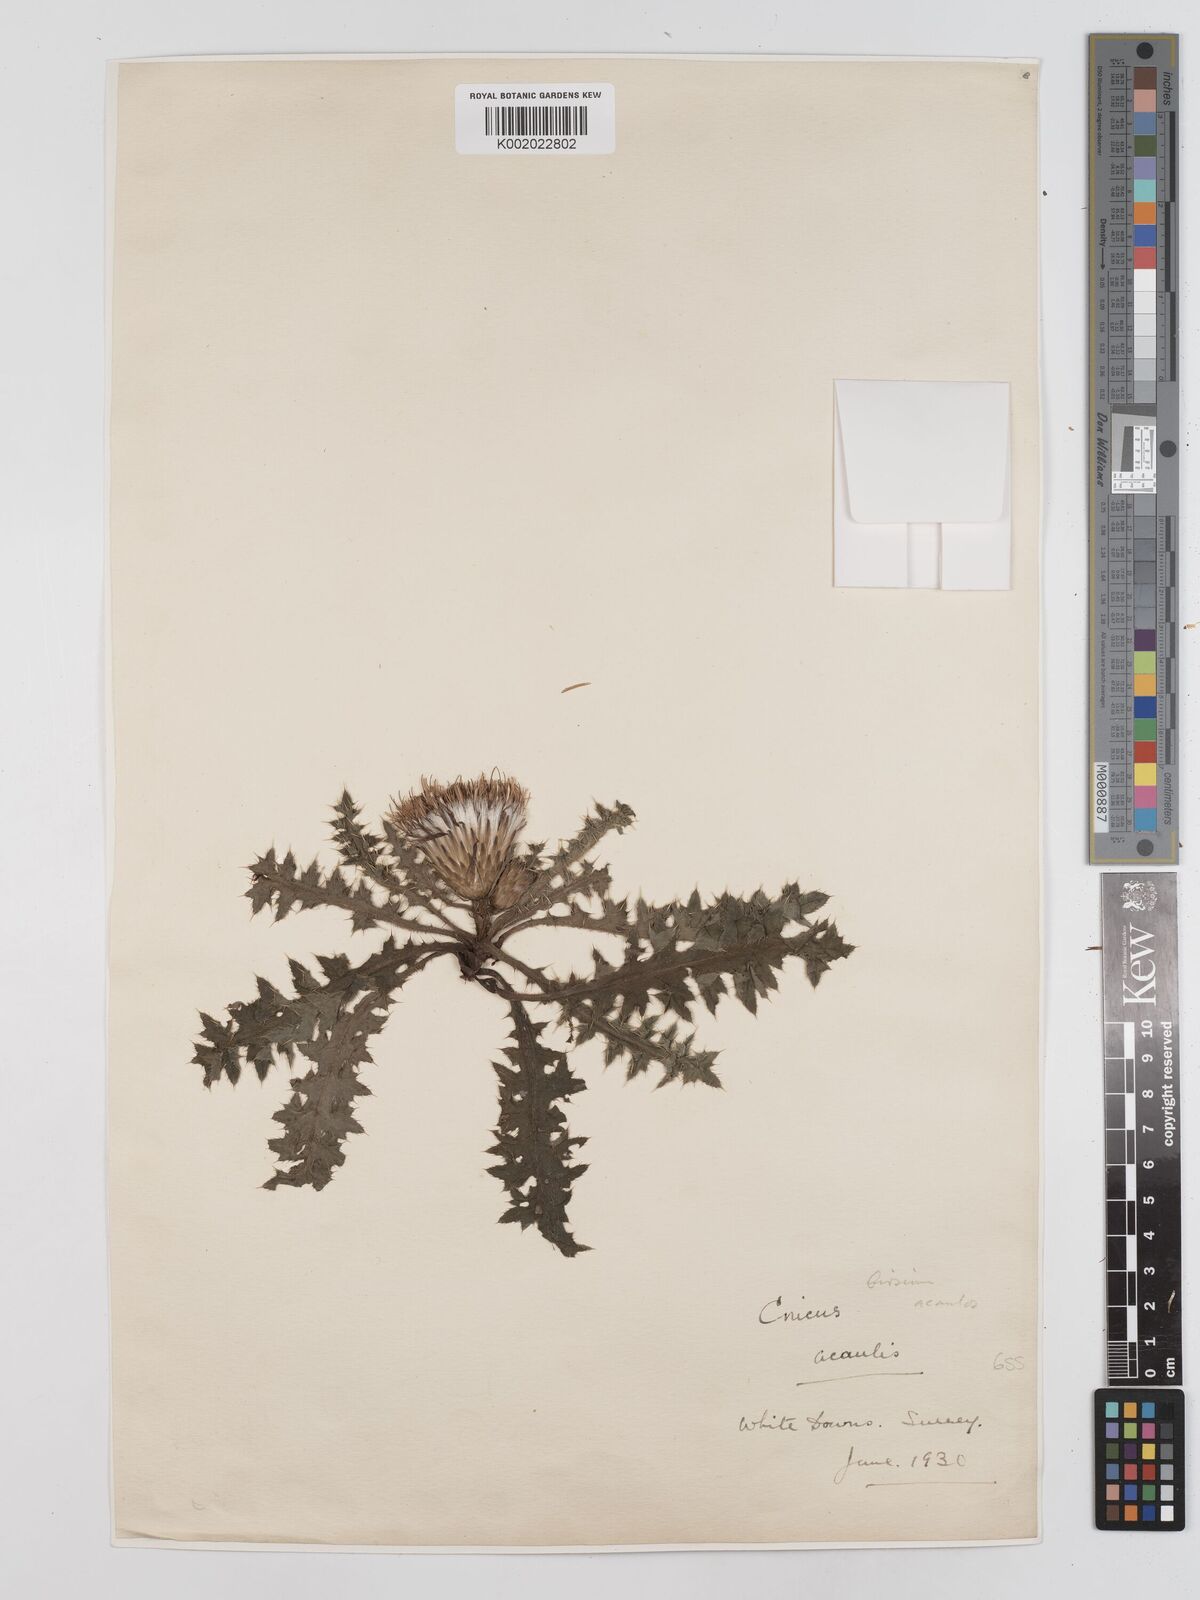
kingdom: Plantae
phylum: Tracheophyta
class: Magnoliopsida
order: Asterales
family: Asteraceae
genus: Cirsium
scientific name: Cirsium acaule
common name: Dwarf thistle
